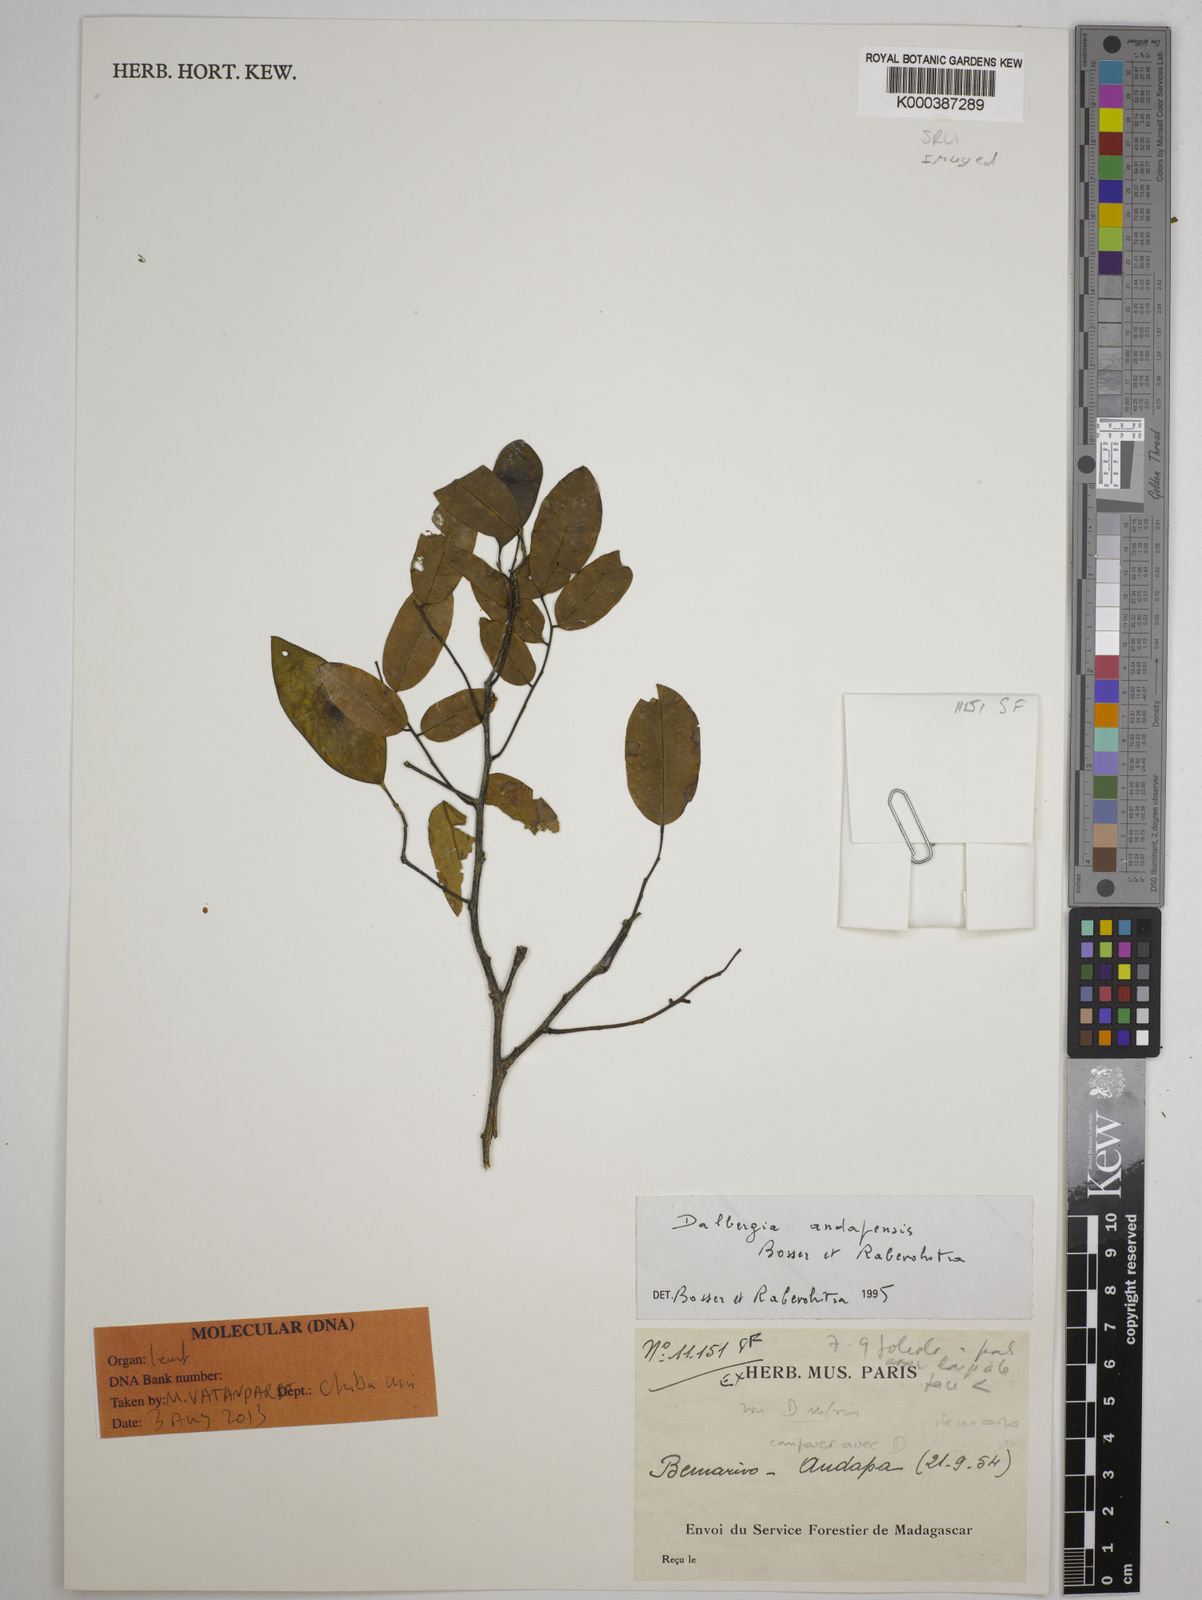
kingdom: Plantae
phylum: Tracheophyta
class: Magnoliopsida
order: Fabales
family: Fabaceae
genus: Dalbergia
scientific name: Dalbergia andapensis
